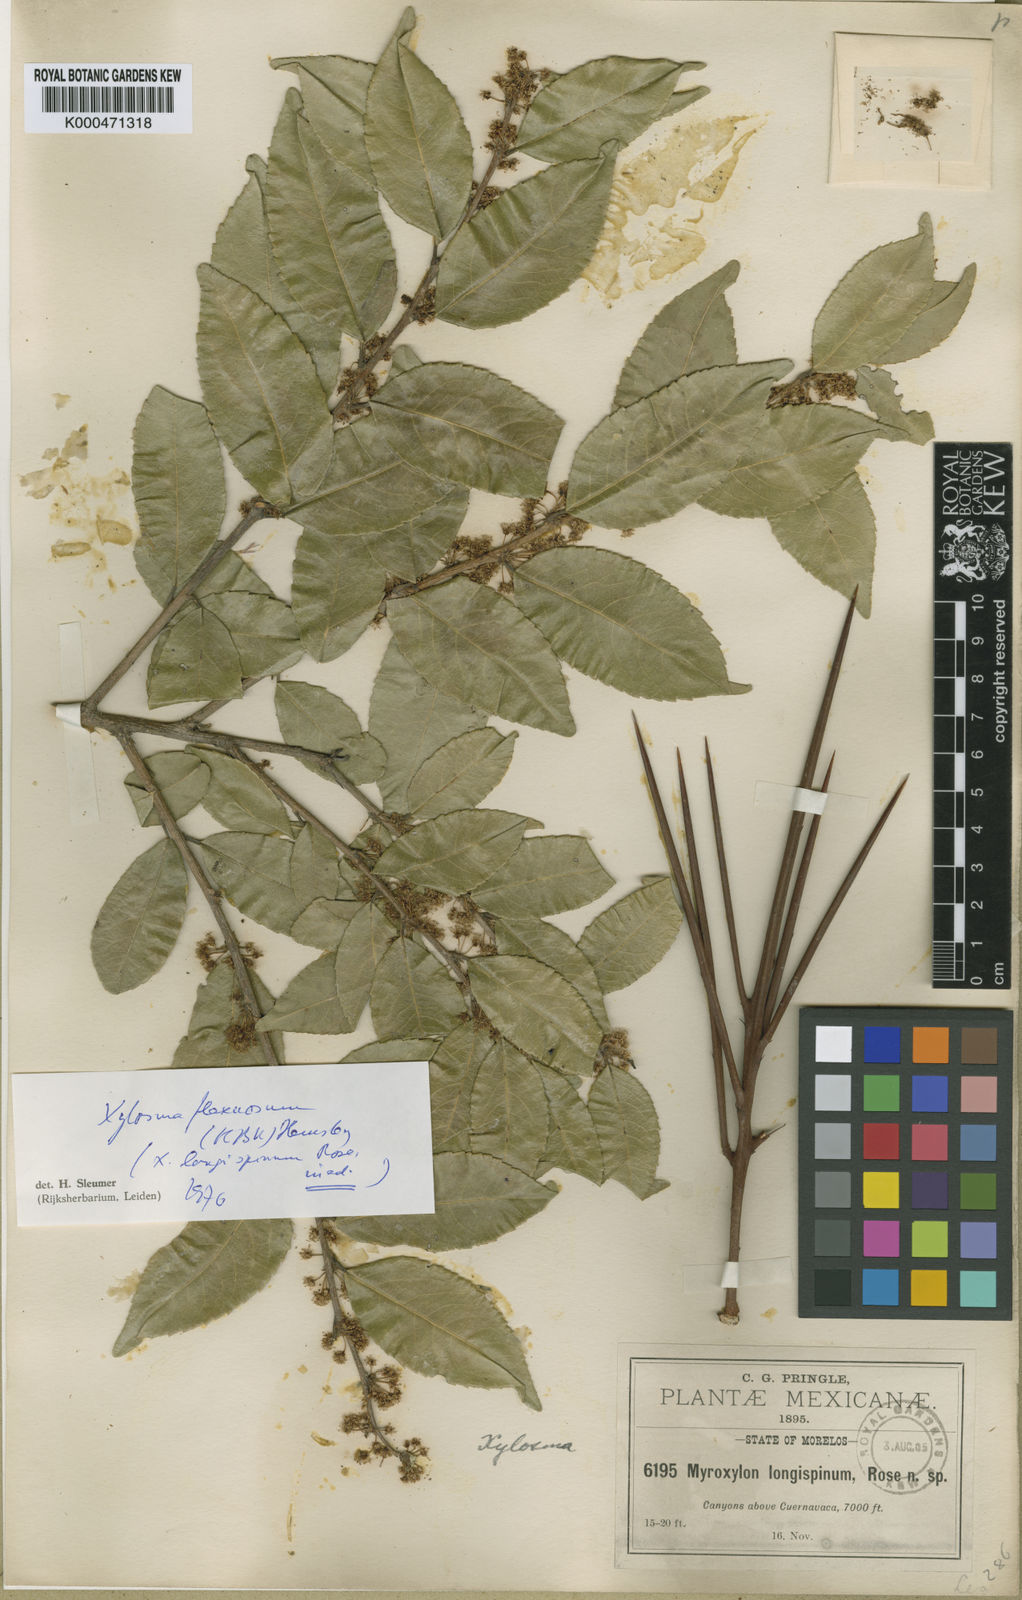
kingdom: Plantae
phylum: Tracheophyta
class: Magnoliopsida
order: Malpighiales
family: Salicaceae
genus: Xylosma
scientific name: Xylosma flexuosa
